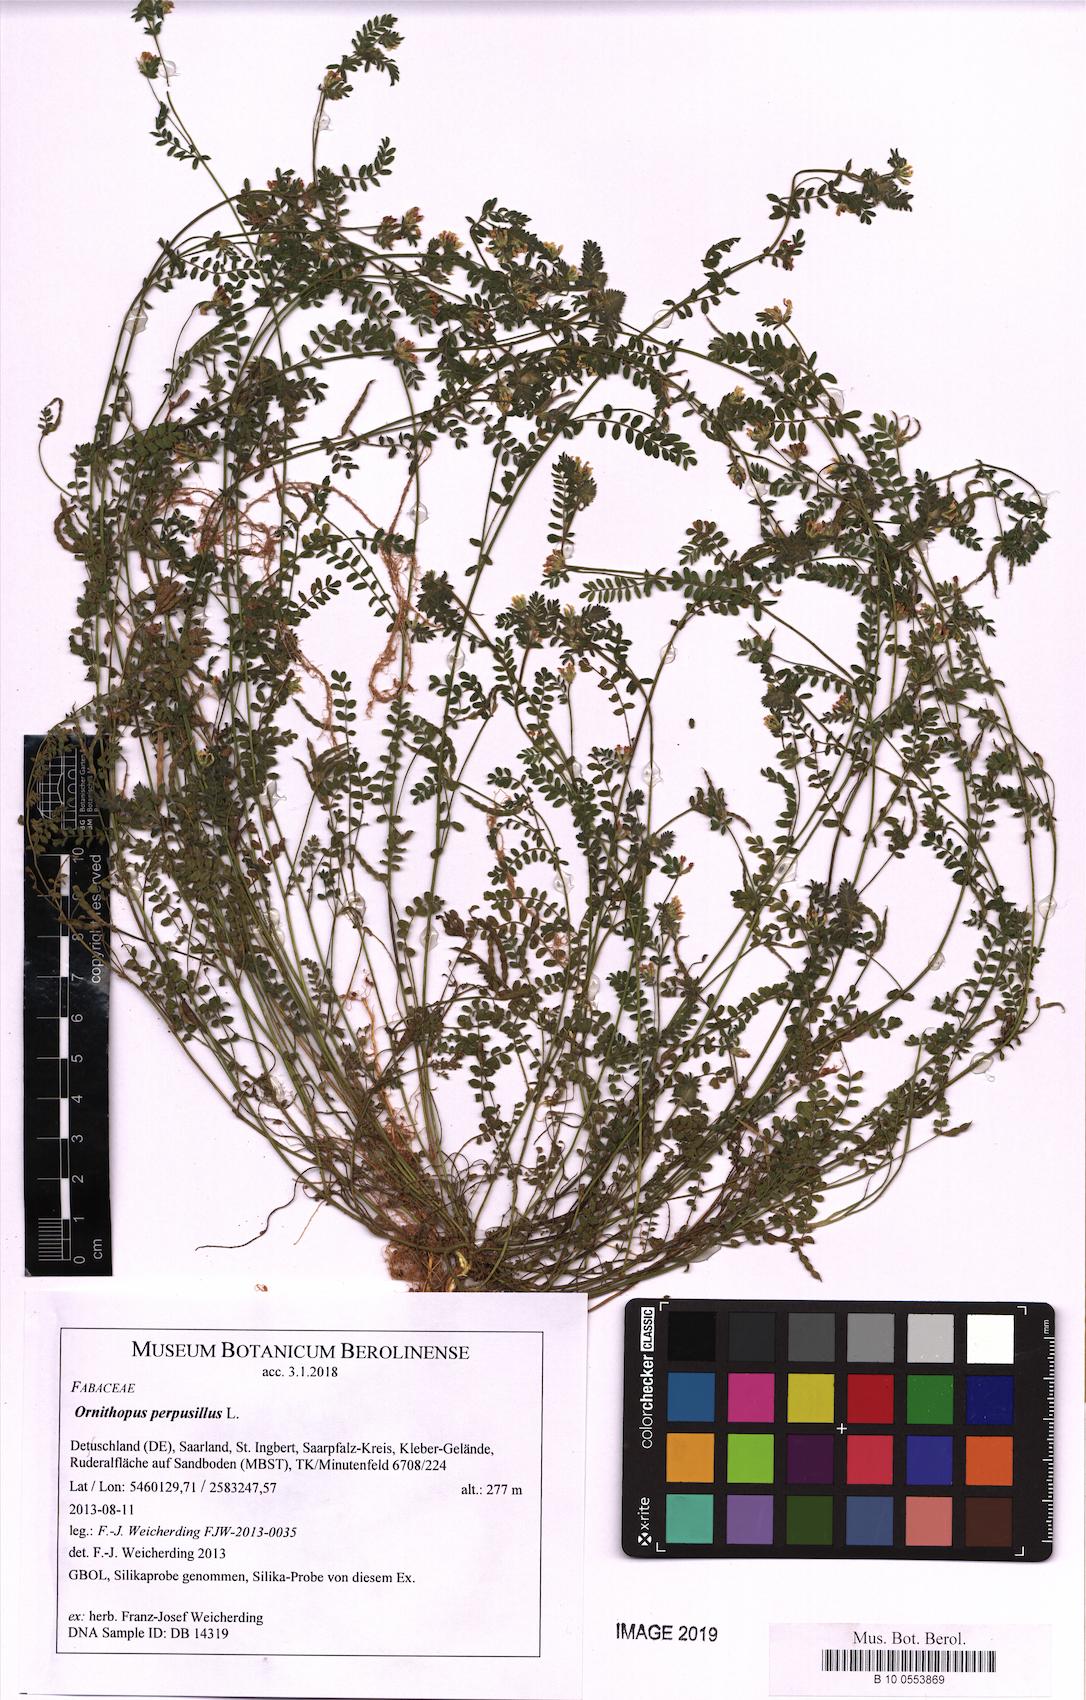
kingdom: Plantae
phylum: Tracheophyta
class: Magnoliopsida
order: Fabales
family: Fabaceae
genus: Ornithopus
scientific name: Ornithopus perpusillus
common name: Bird's-foot
